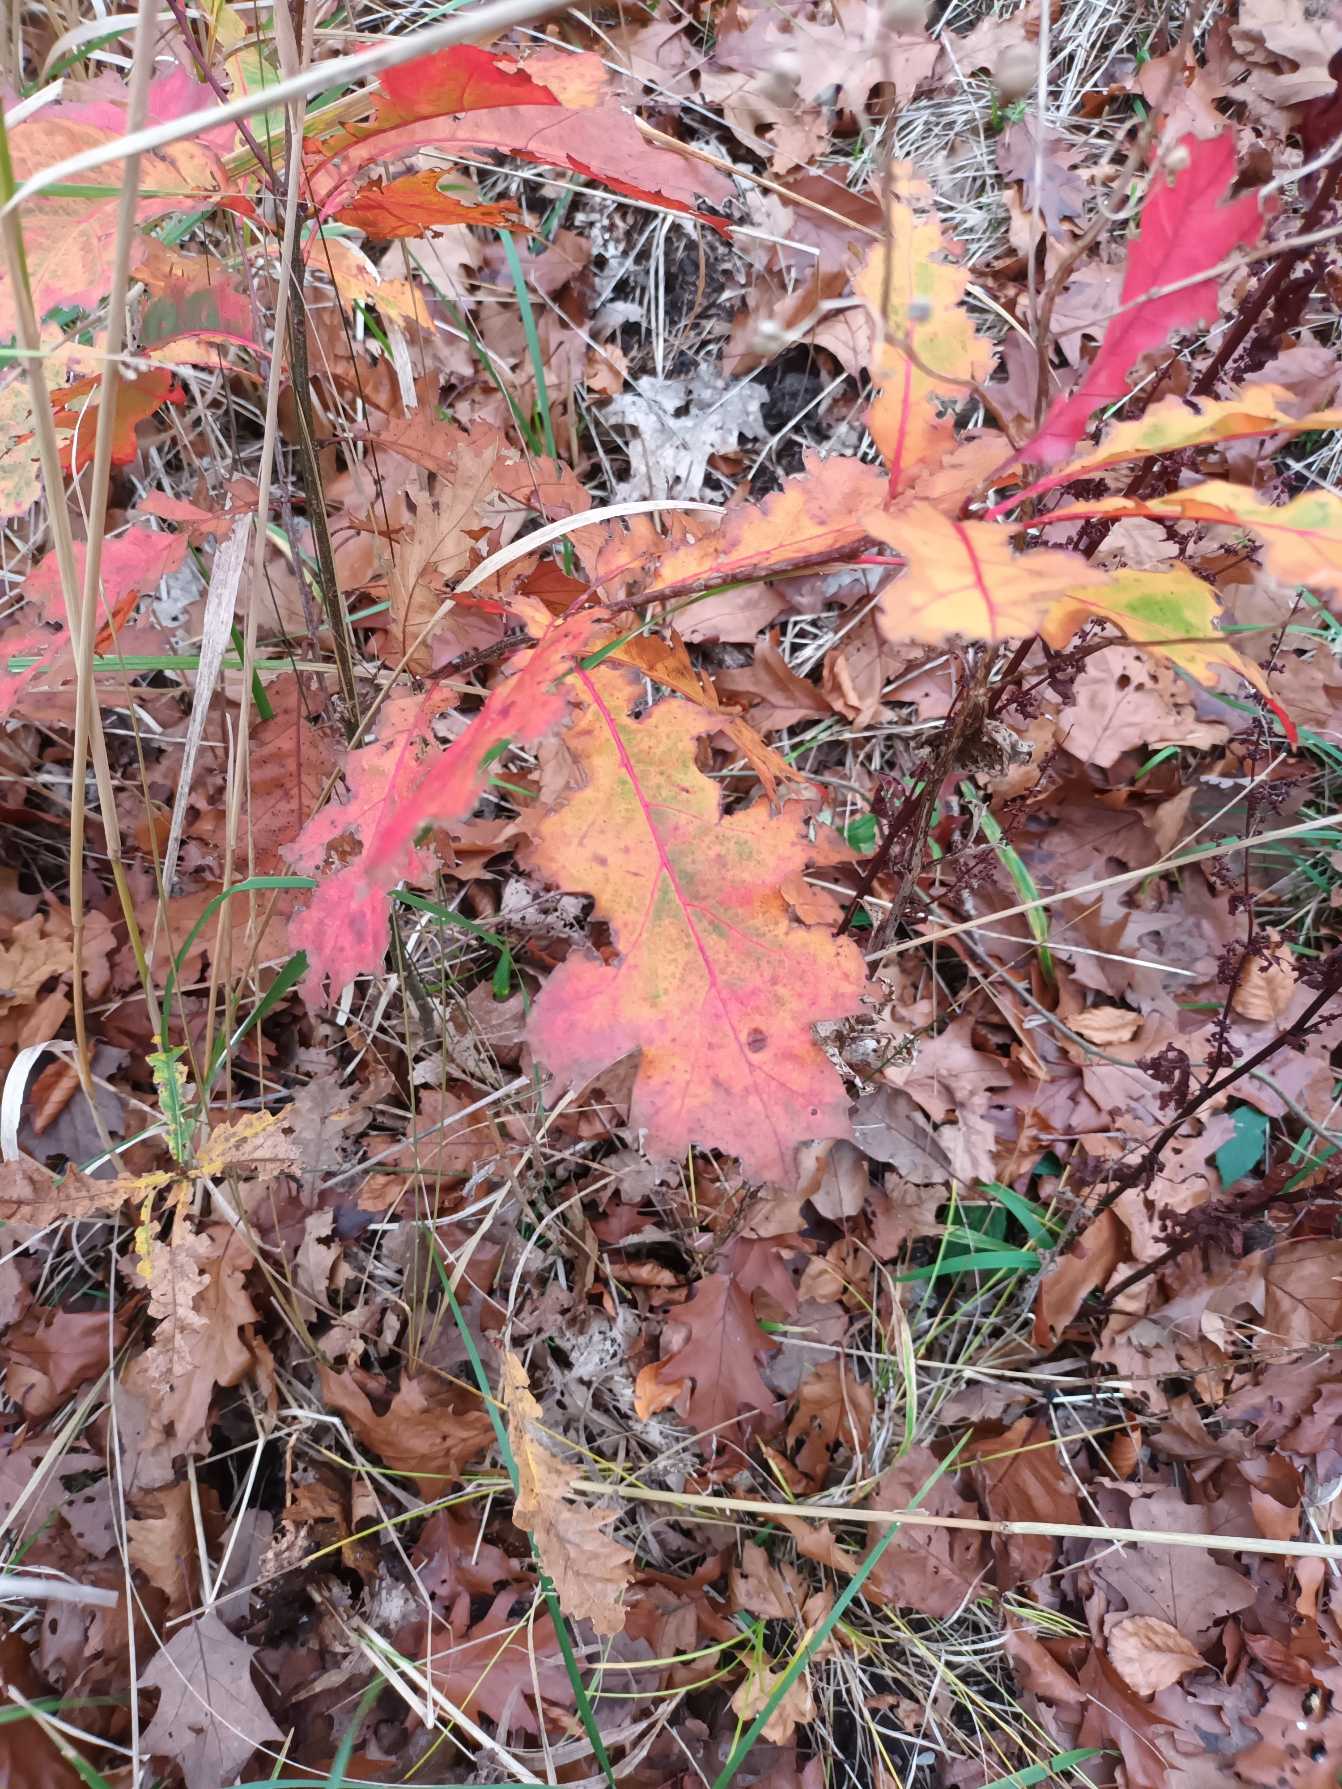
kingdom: Plantae
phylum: Tracheophyta
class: Magnoliopsida
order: Fagales
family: Fagaceae
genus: Quercus
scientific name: Quercus rubra
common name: Rød-eg
